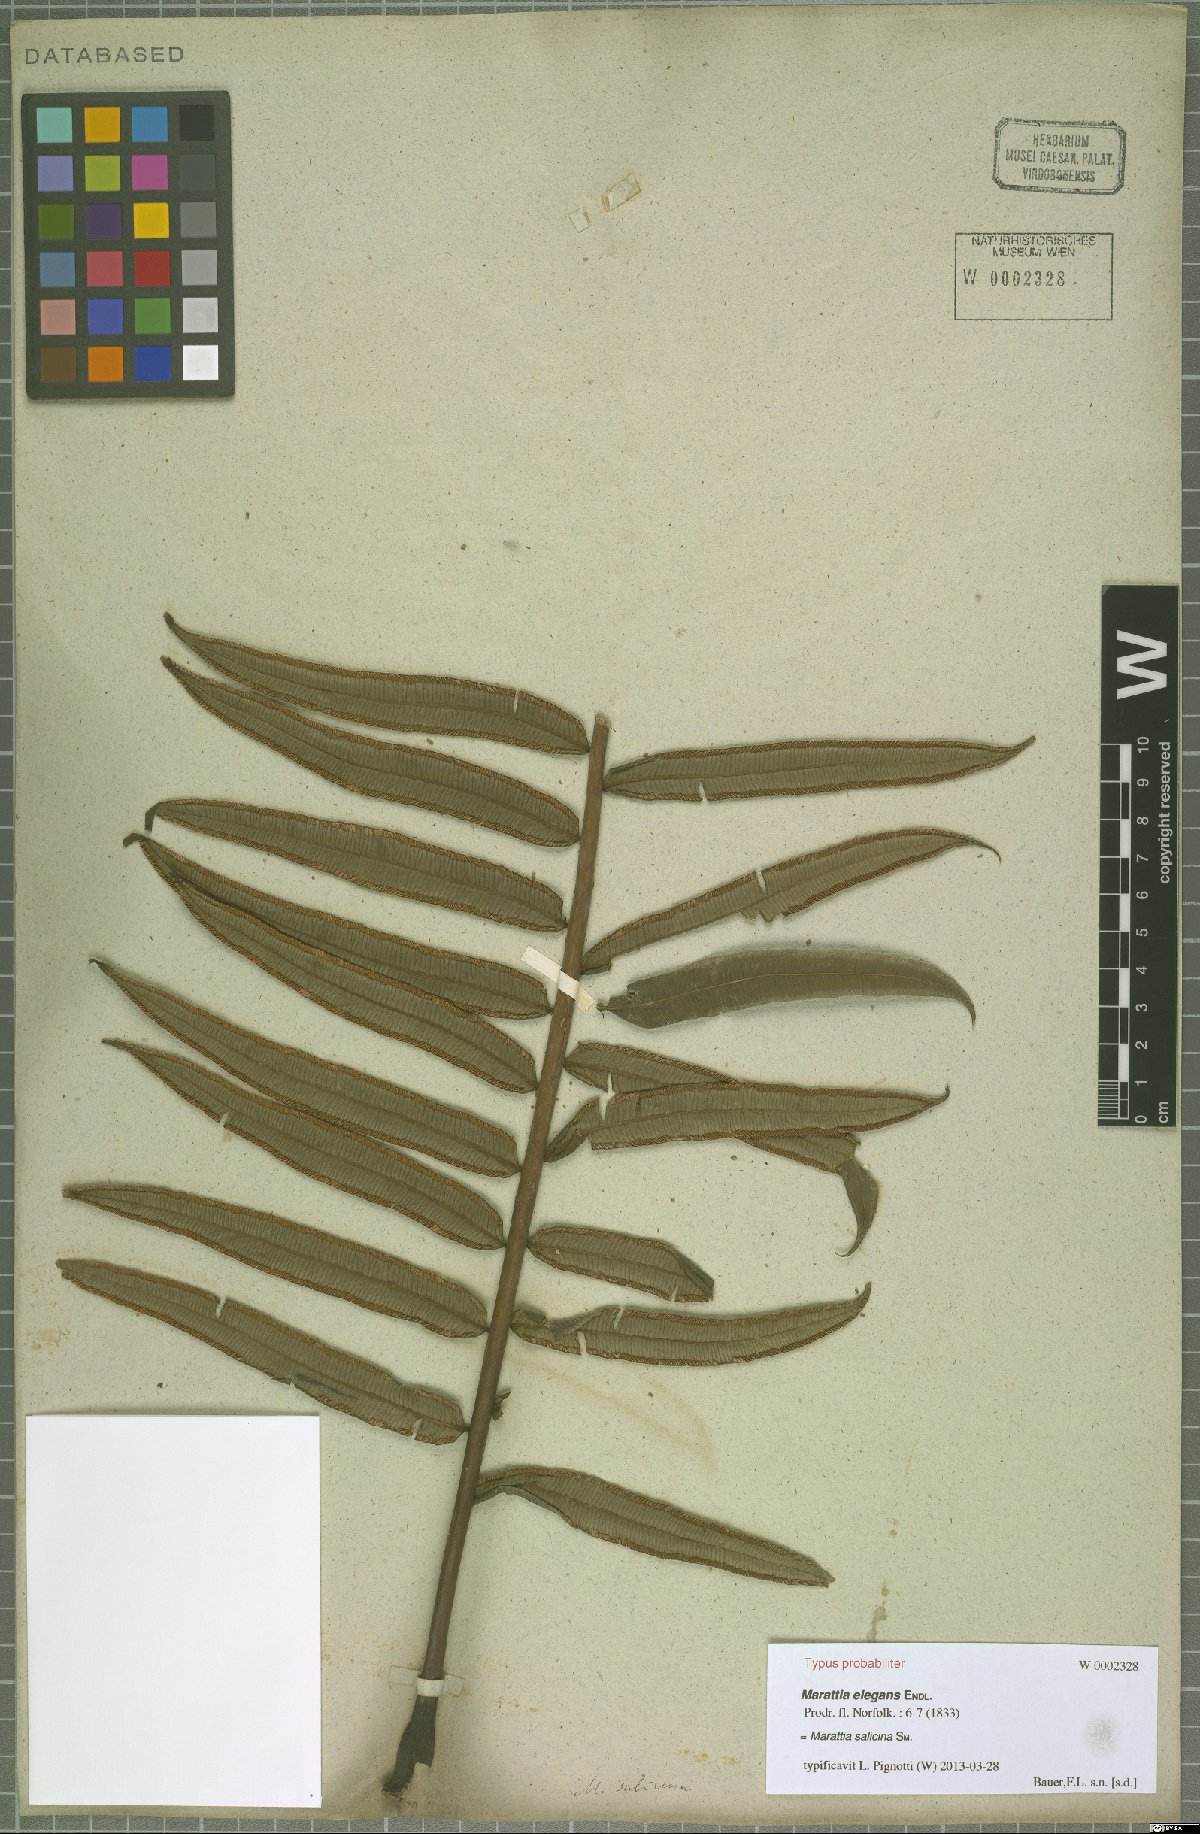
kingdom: Plantae
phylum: Tracheophyta
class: Polypodiopsida
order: Marattiales
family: Marattiaceae
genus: Ptisana
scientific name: Ptisana salicina
